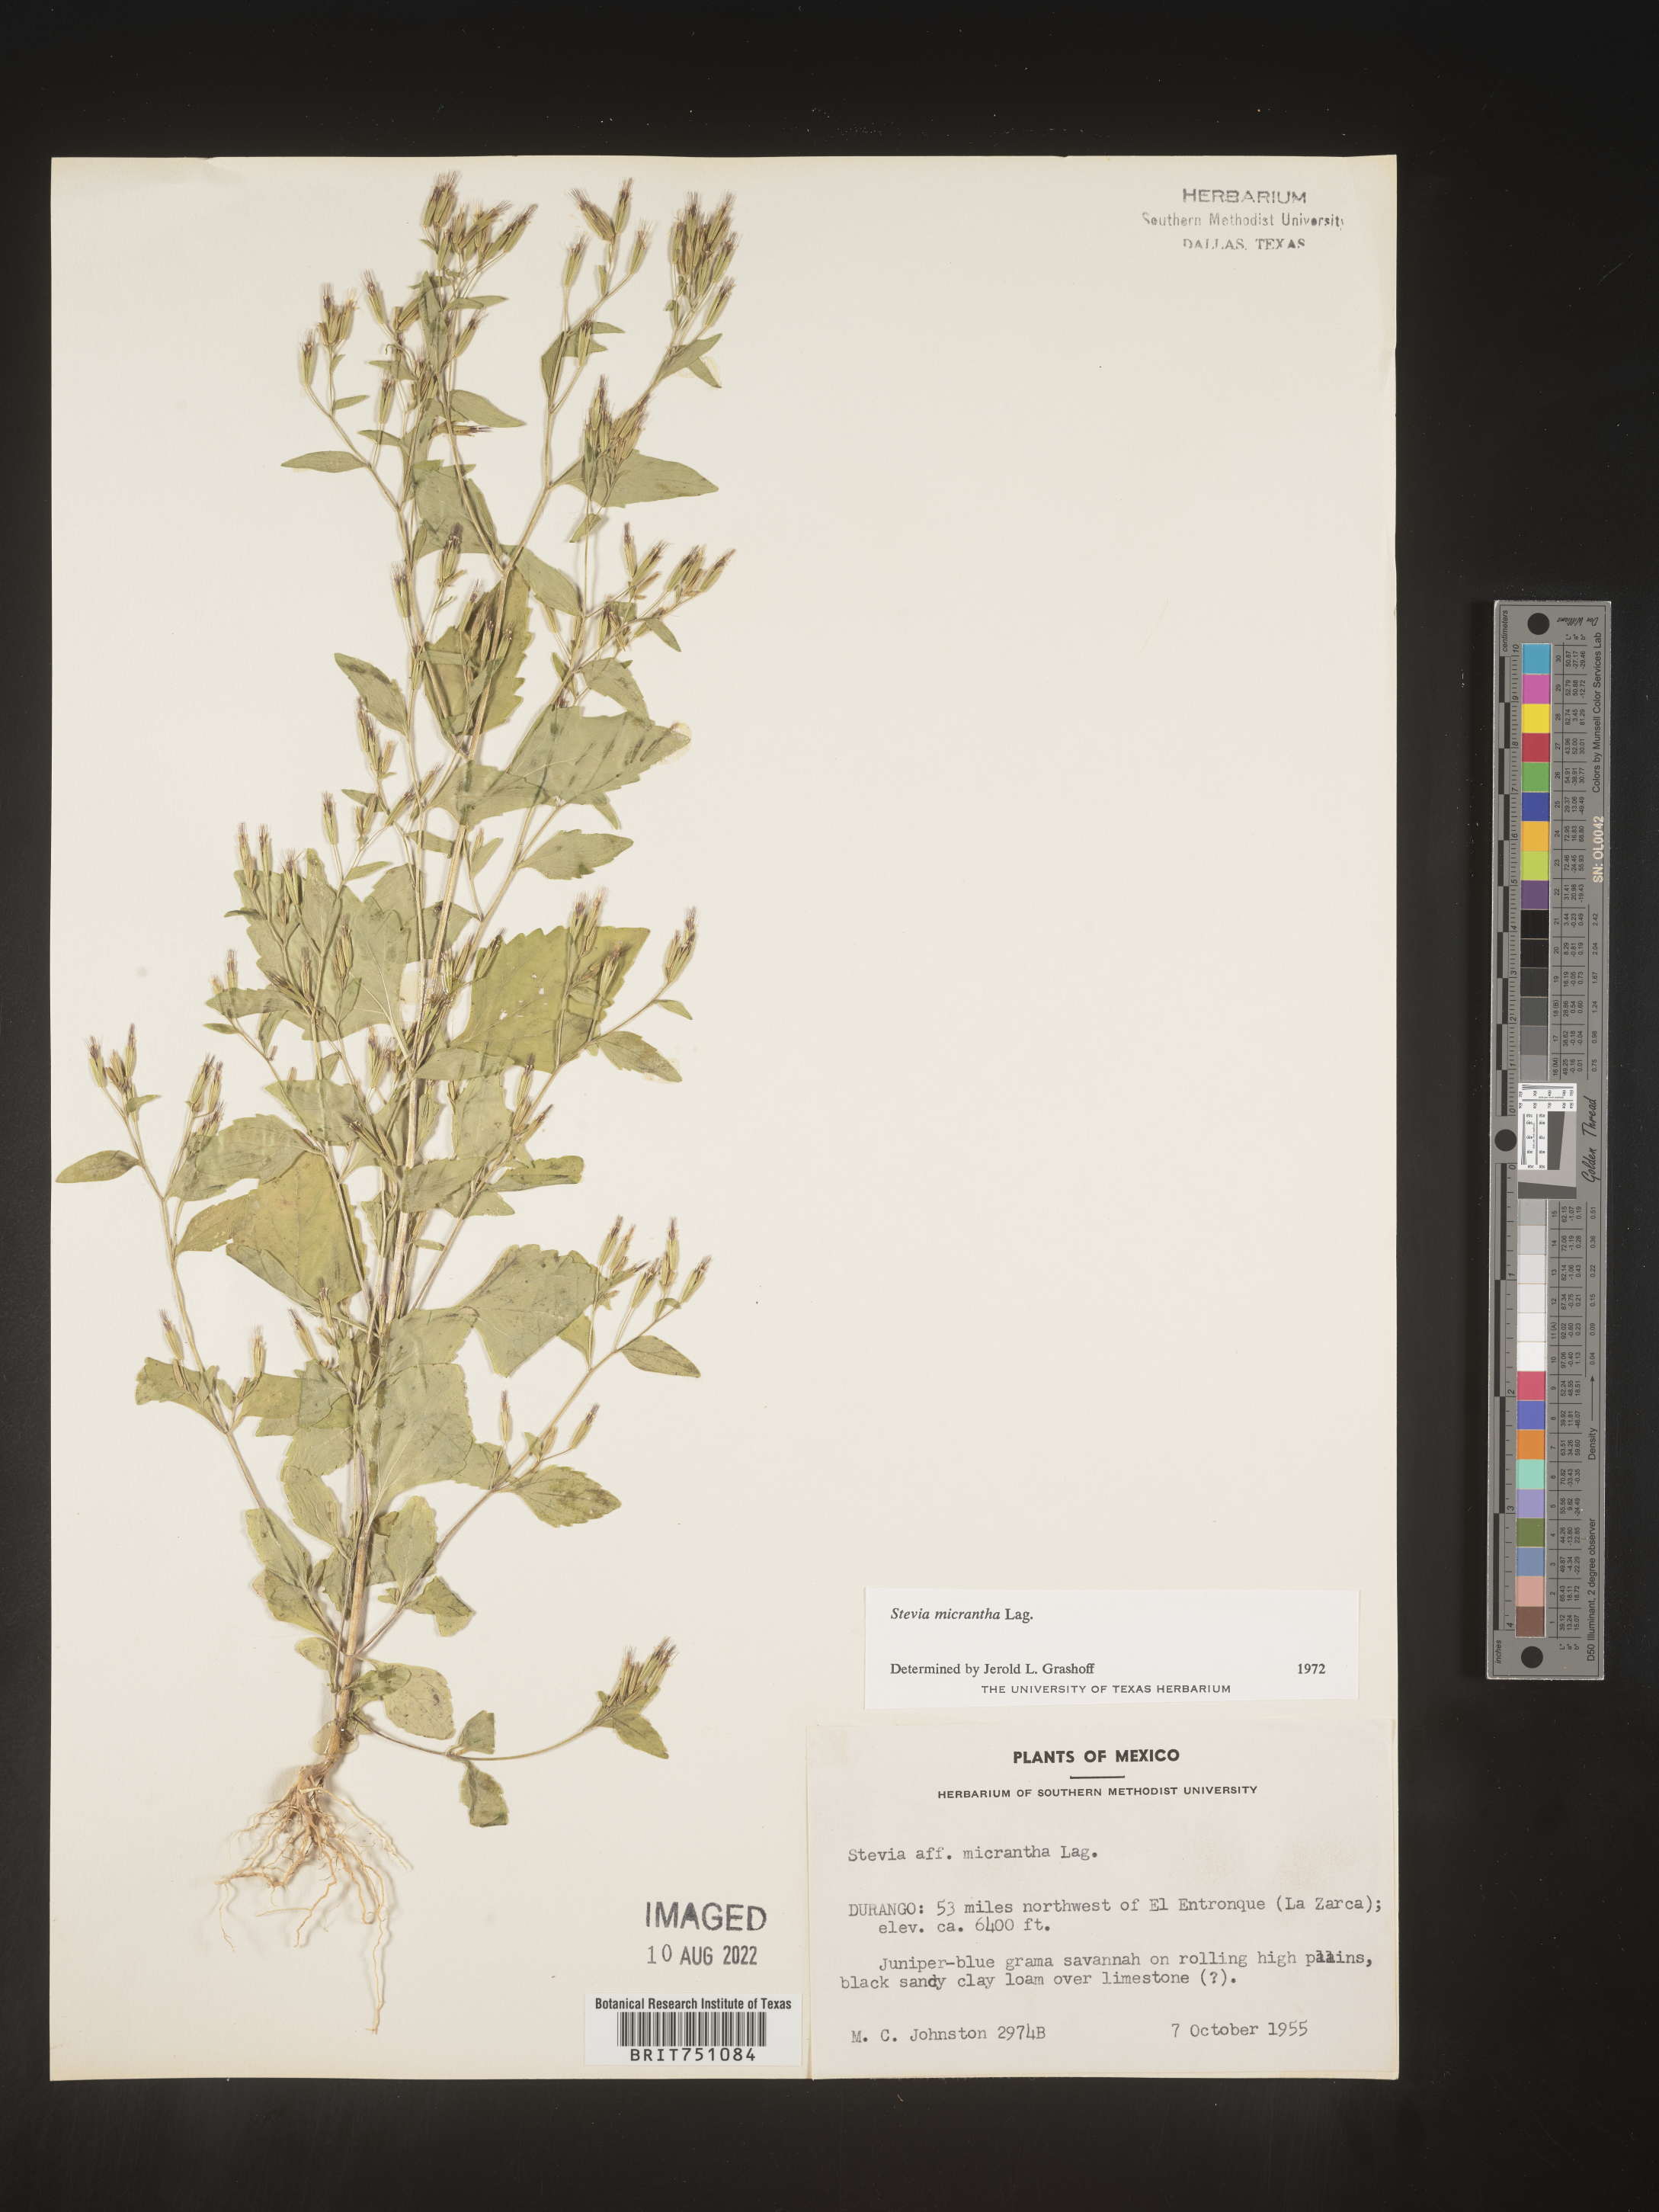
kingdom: Plantae
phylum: Tracheophyta
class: Magnoliopsida
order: Asterales
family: Asteraceae
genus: Stevia
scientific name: Stevia
